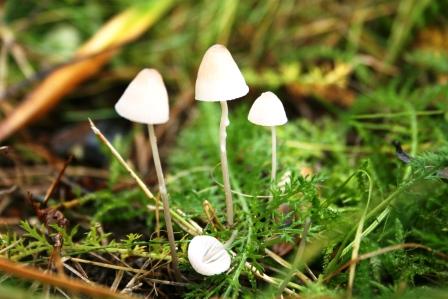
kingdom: Fungi
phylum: Basidiomycota
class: Agaricomycetes
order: Agaricales
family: Mycenaceae
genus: Mycena
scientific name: Mycena galopus
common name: hvidmælket huesvamp
